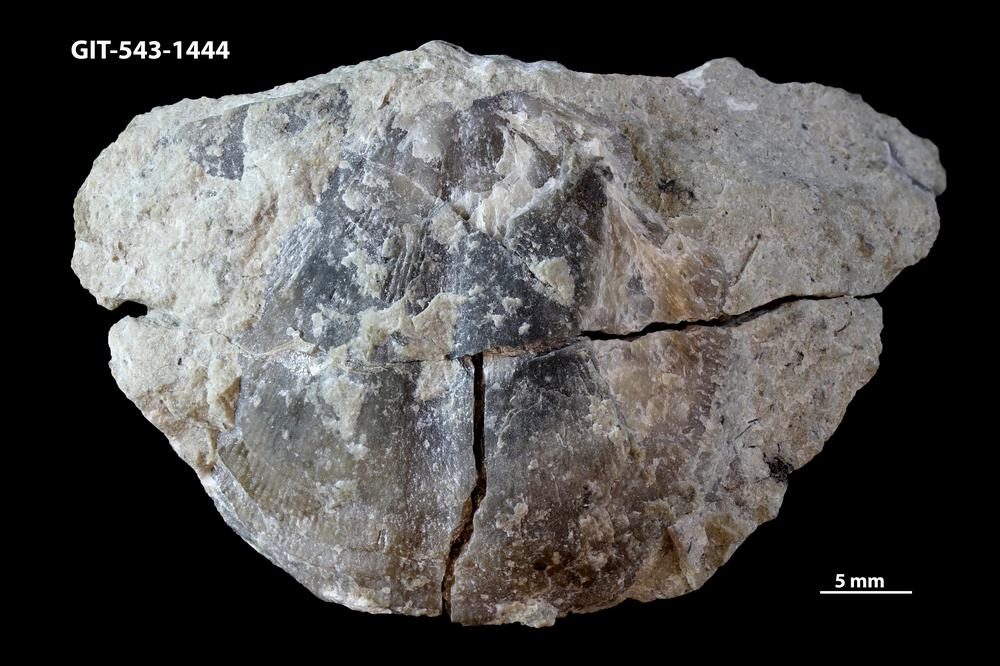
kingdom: Animalia
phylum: Brachiopoda
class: Rhynchonellata
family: Clitambonitidae
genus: Clitambonites
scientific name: Clitambonites
